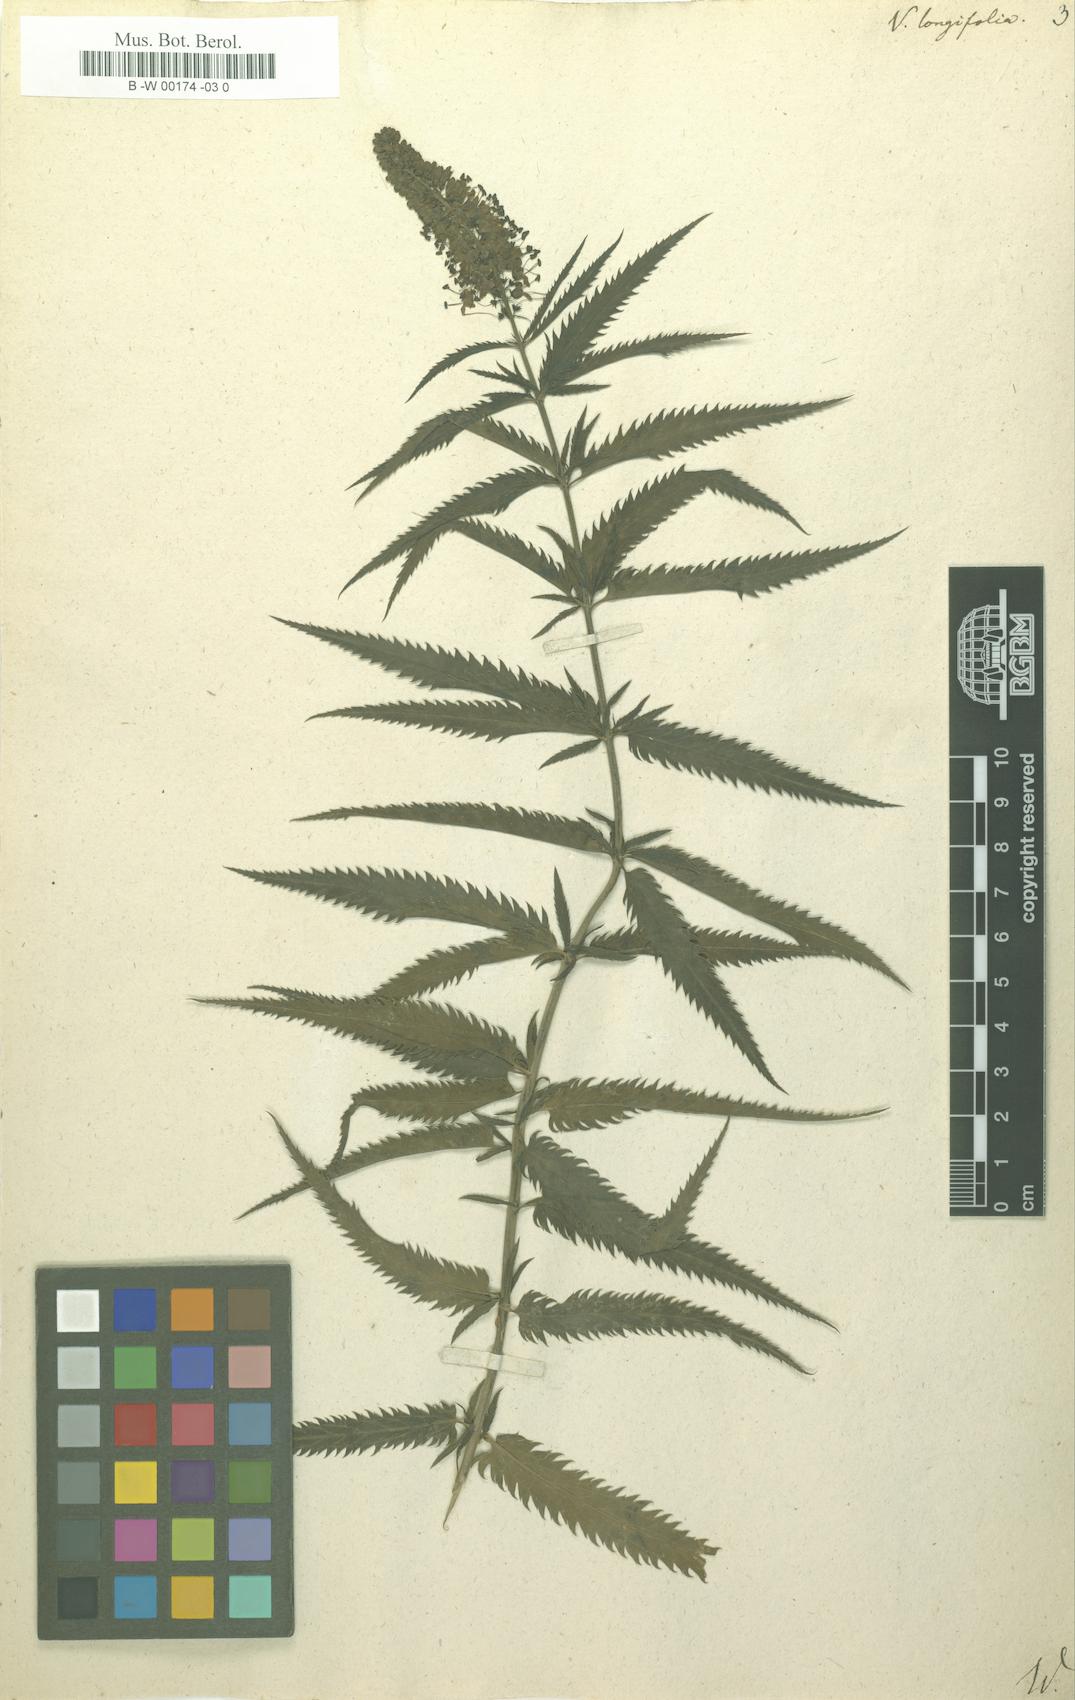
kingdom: Plantae
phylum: Tracheophyta
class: Magnoliopsida
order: Lamiales
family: Plantaginaceae
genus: Veronica
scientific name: Veronica longifolia
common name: Garden speedwell
